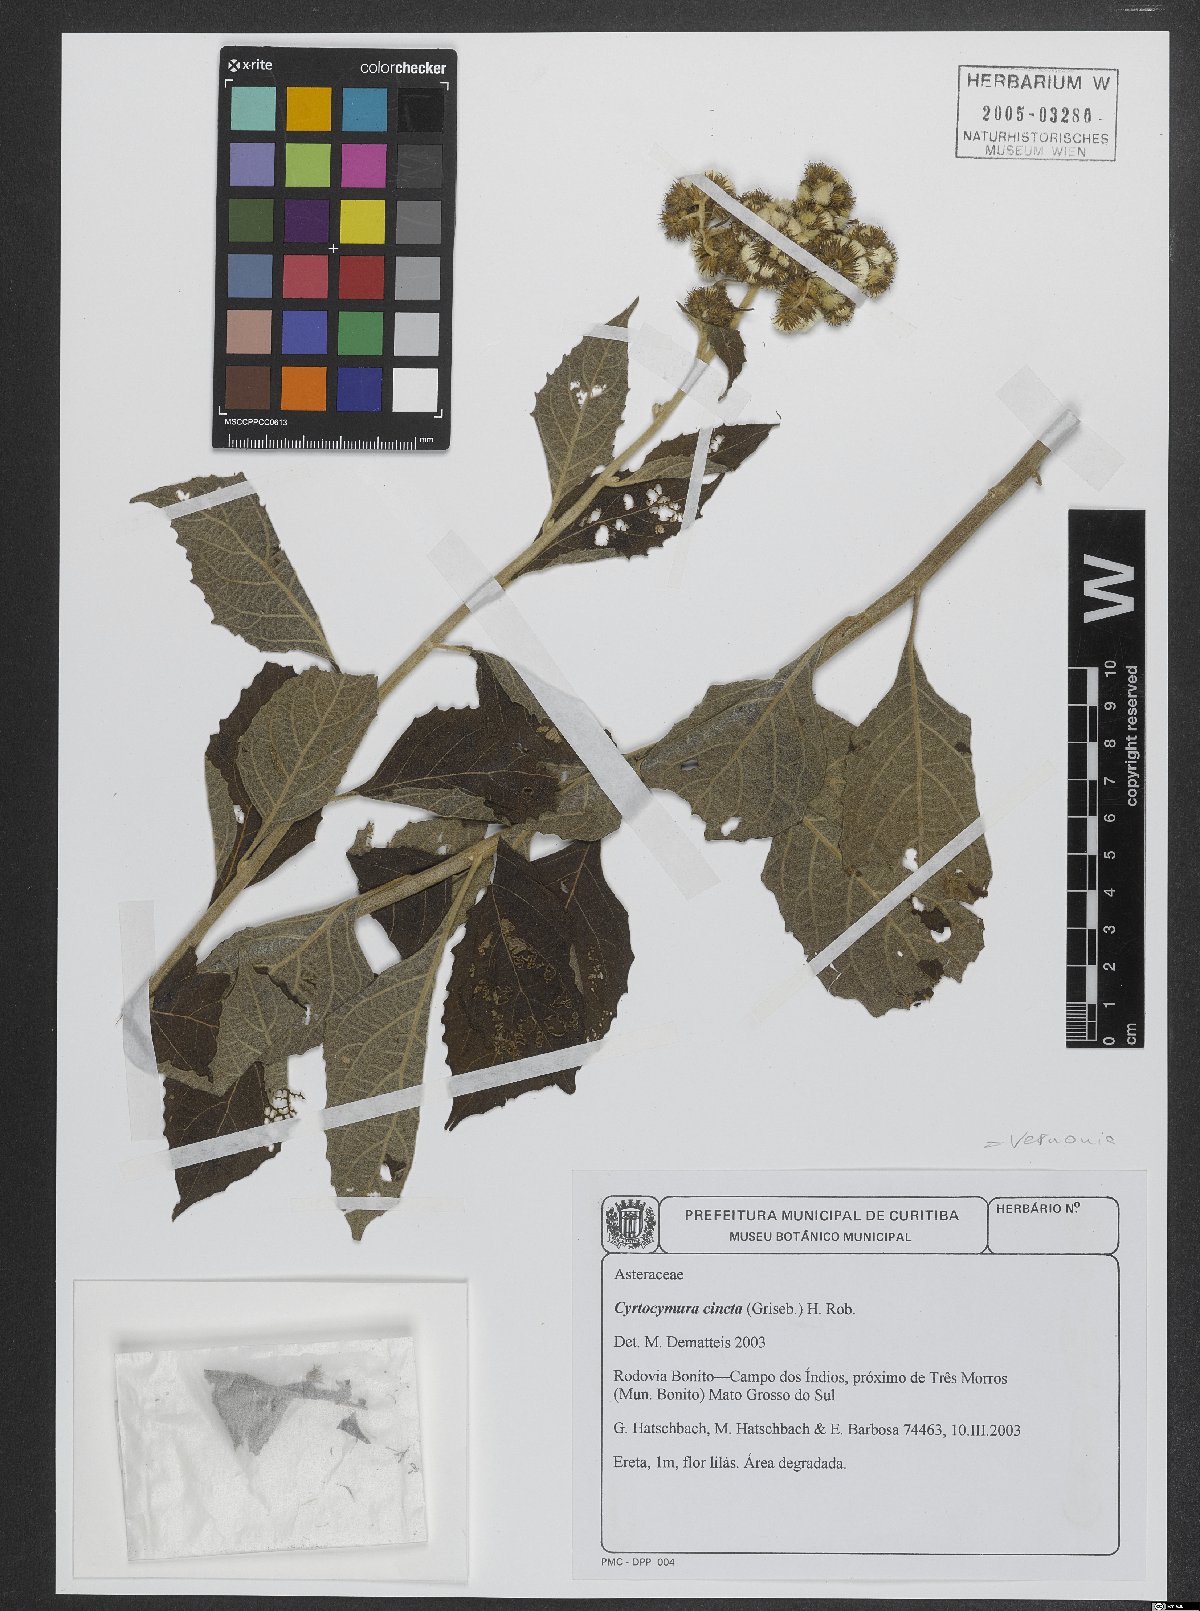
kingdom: Plantae
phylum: Tracheophyta
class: Magnoliopsida
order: Asterales
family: Asteraceae
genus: Cyrtocymura
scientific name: Cyrtocymura cincta
